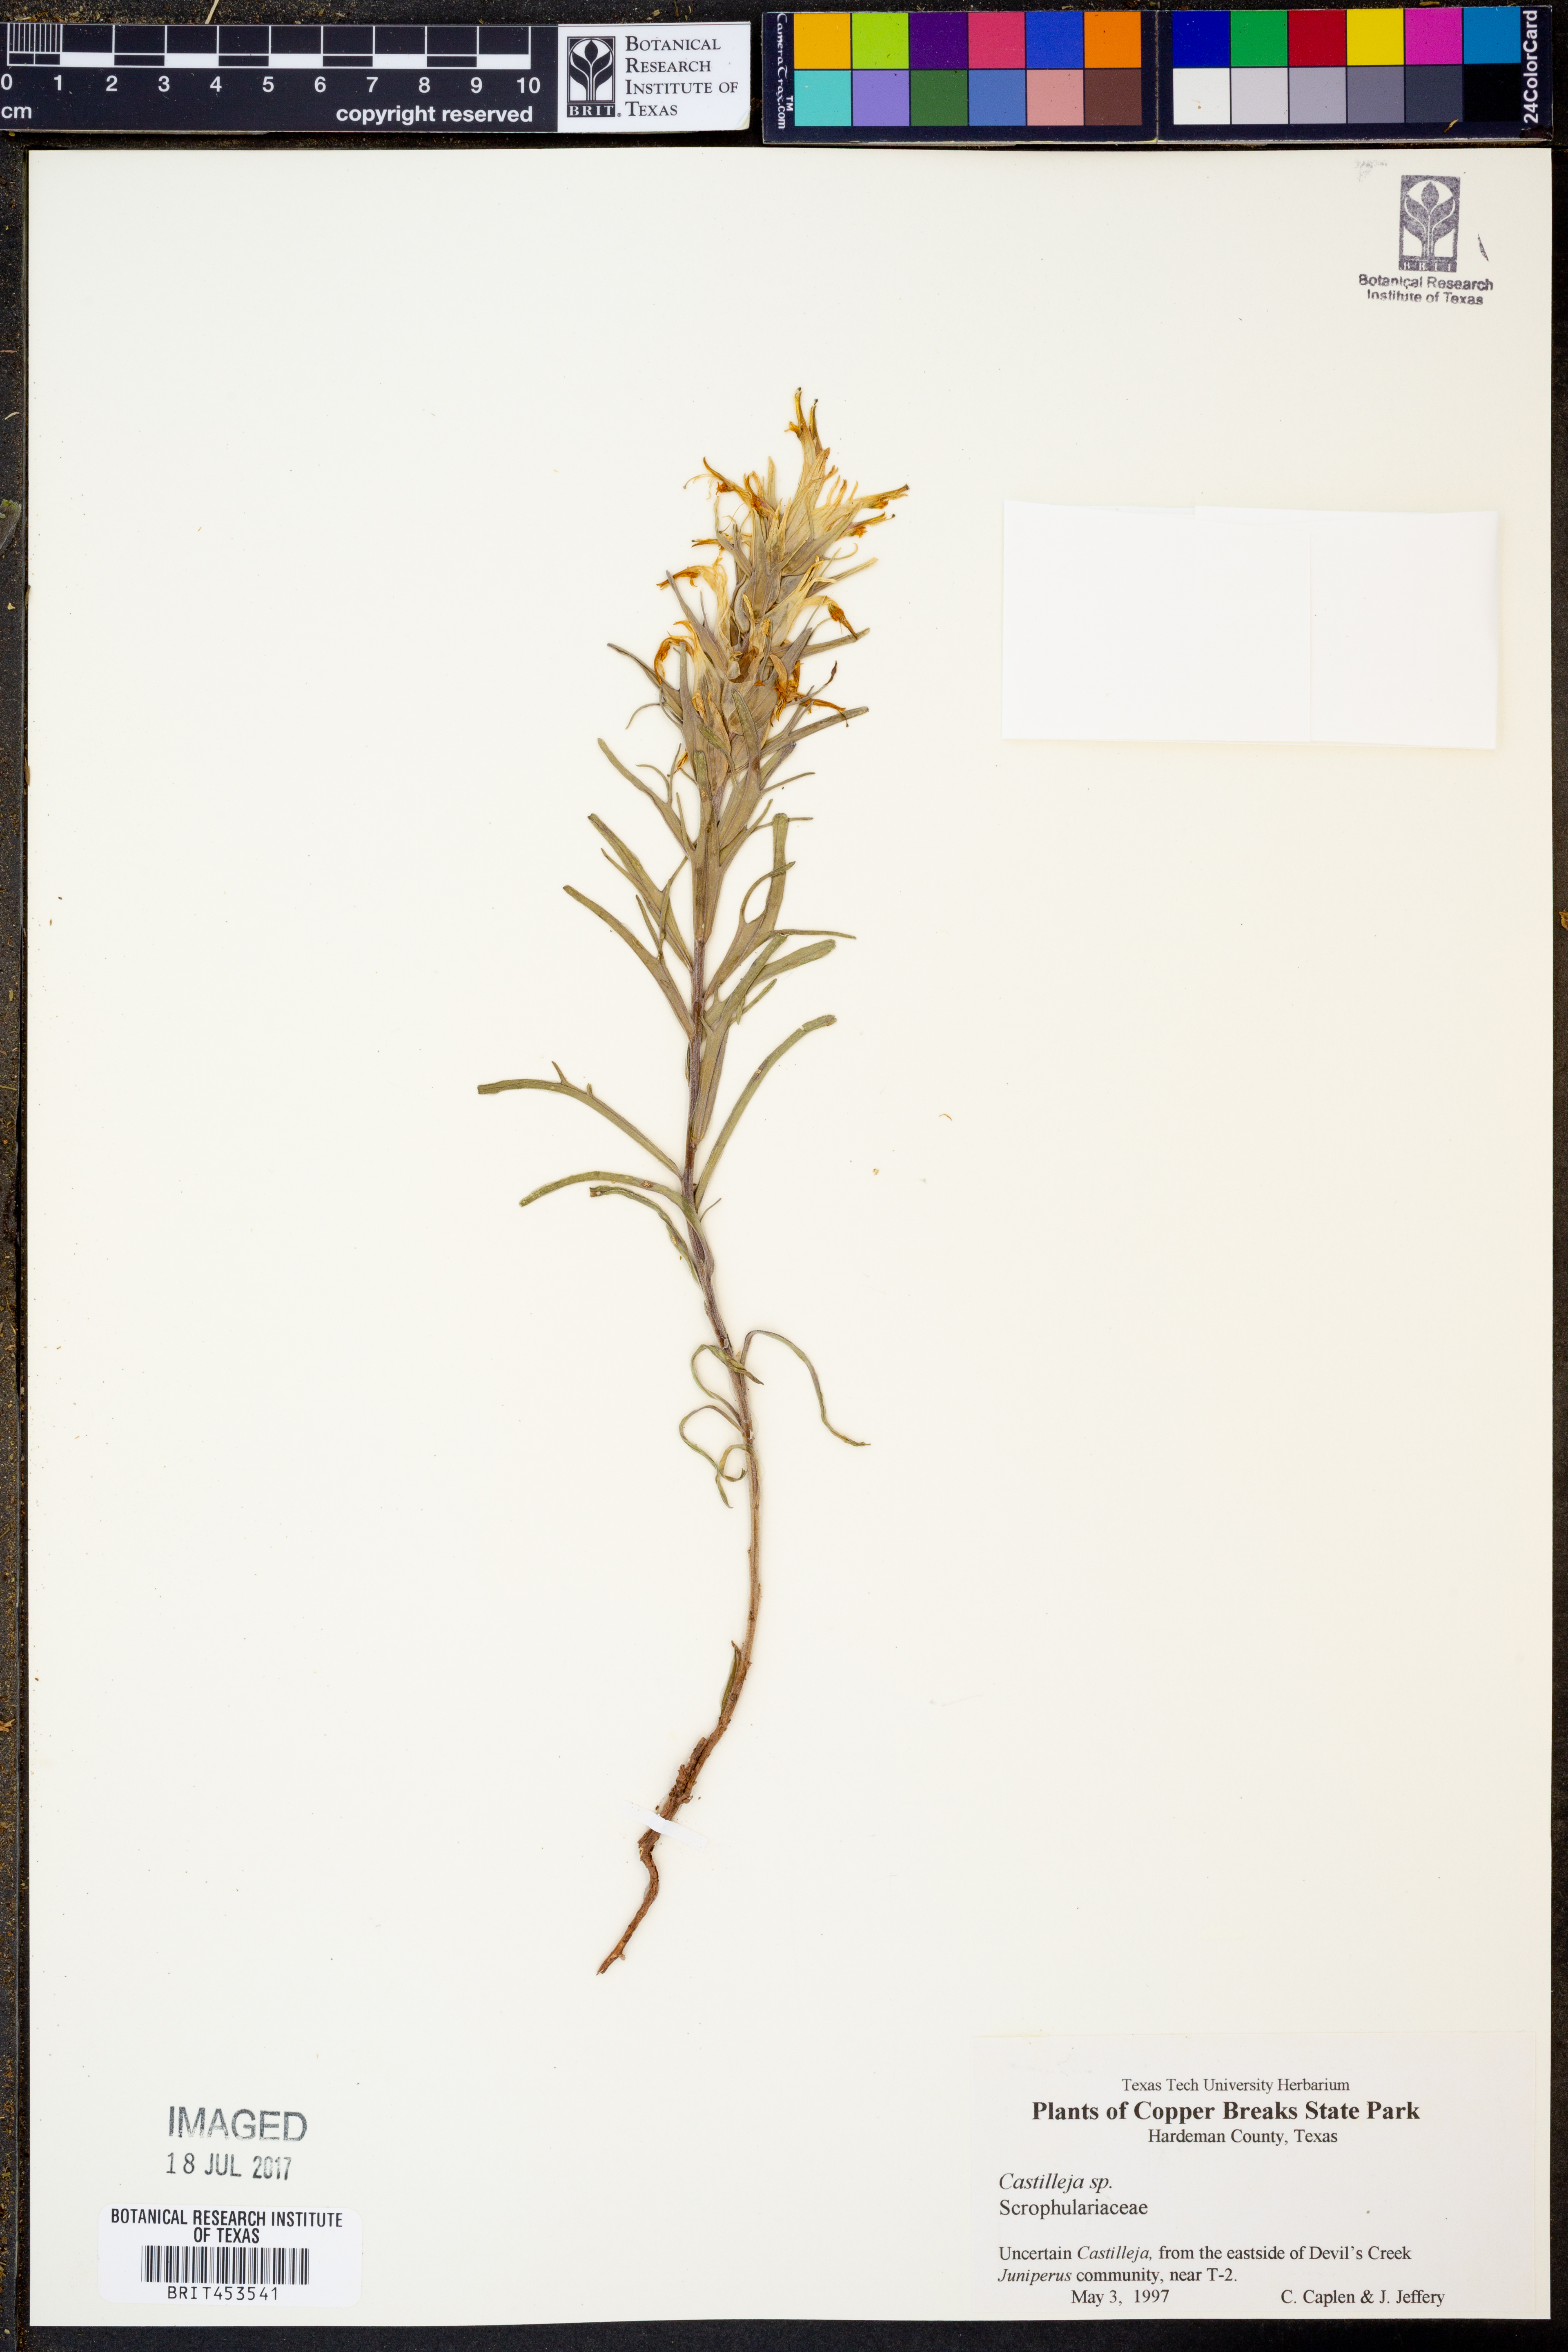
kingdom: Plantae
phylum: Tracheophyta
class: Magnoliopsida
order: Lamiales
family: Orobanchaceae
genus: Castilleja
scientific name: Castilleja
